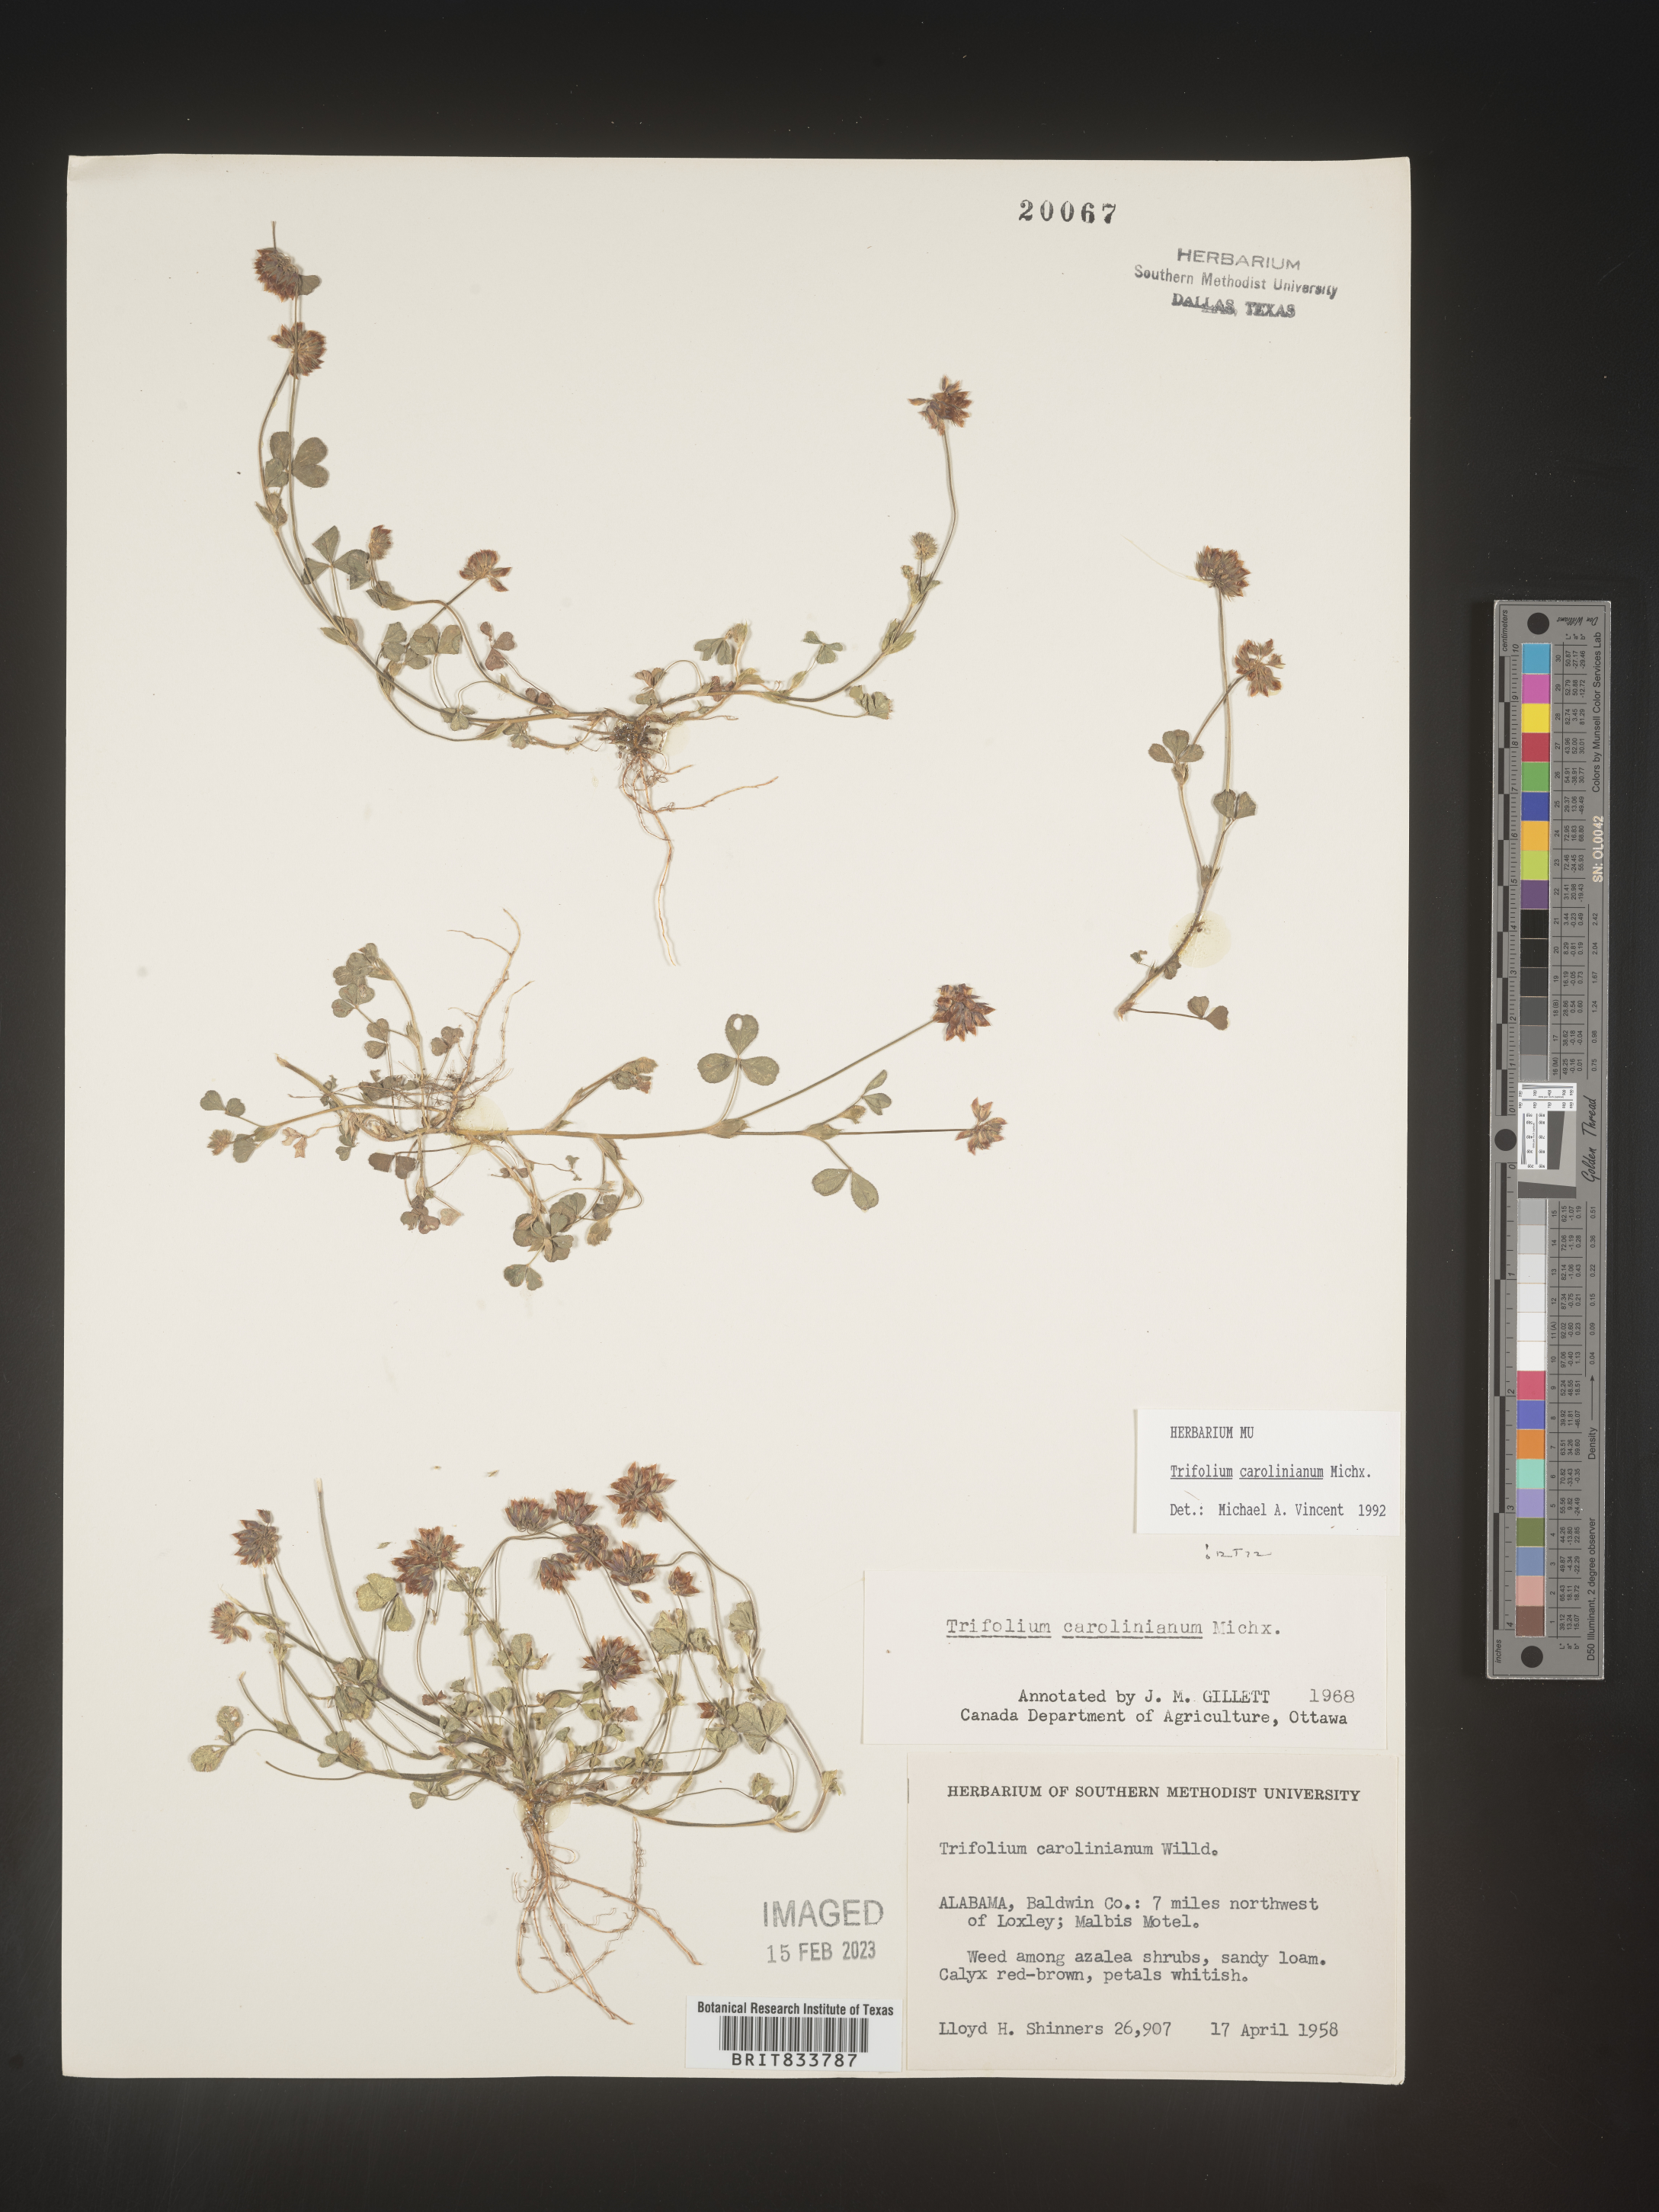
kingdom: Plantae
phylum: Tracheophyta
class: Magnoliopsida
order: Fabales
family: Fabaceae
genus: Trifolium
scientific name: Trifolium carolinianum
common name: Wild white clover
